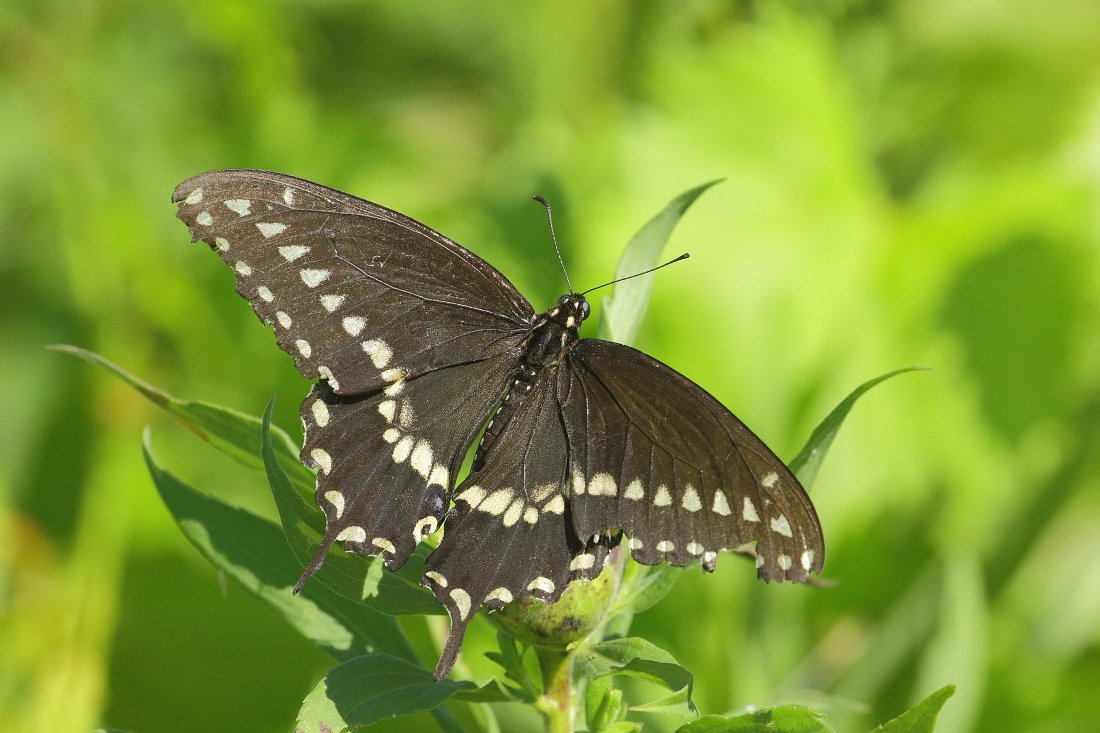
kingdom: Animalia
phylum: Arthropoda
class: Insecta
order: Lepidoptera
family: Papilionidae
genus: Papilio
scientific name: Papilio polyxenes
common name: Black Swallowtail
